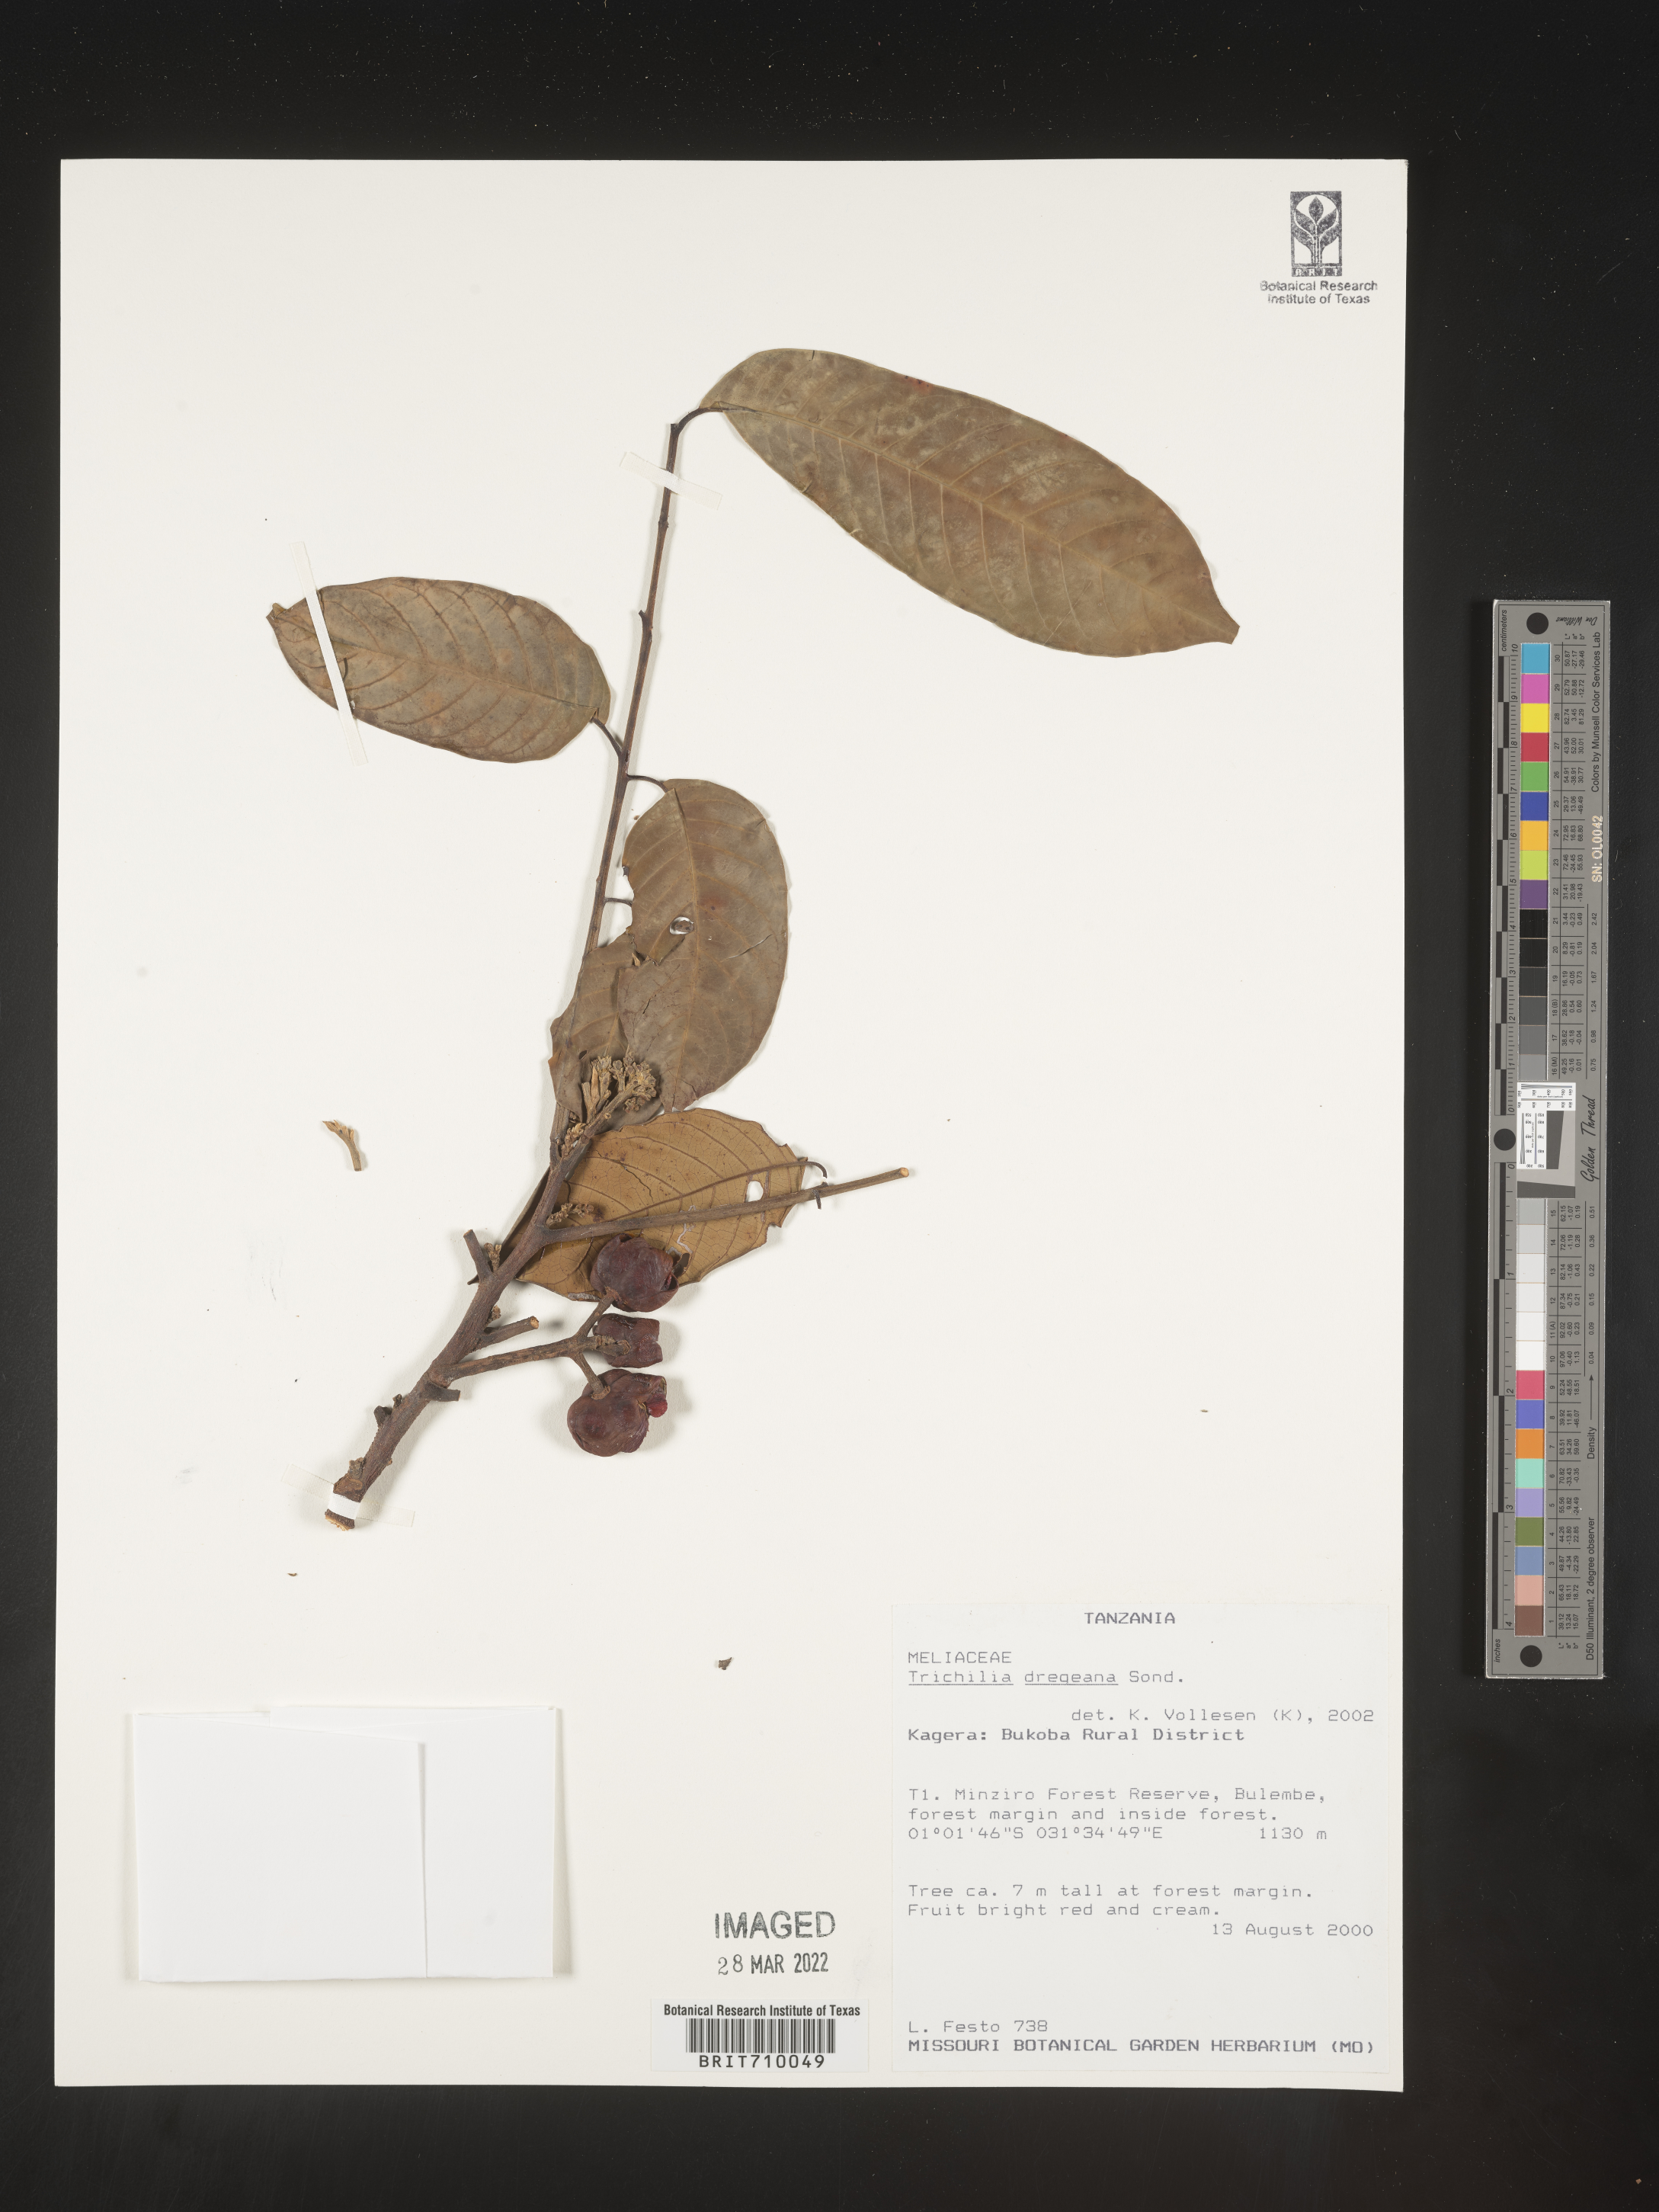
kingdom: Plantae
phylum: Tracheophyta
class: Magnoliopsida
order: Sapindales
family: Meliaceae
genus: Trichilia
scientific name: Trichilia
